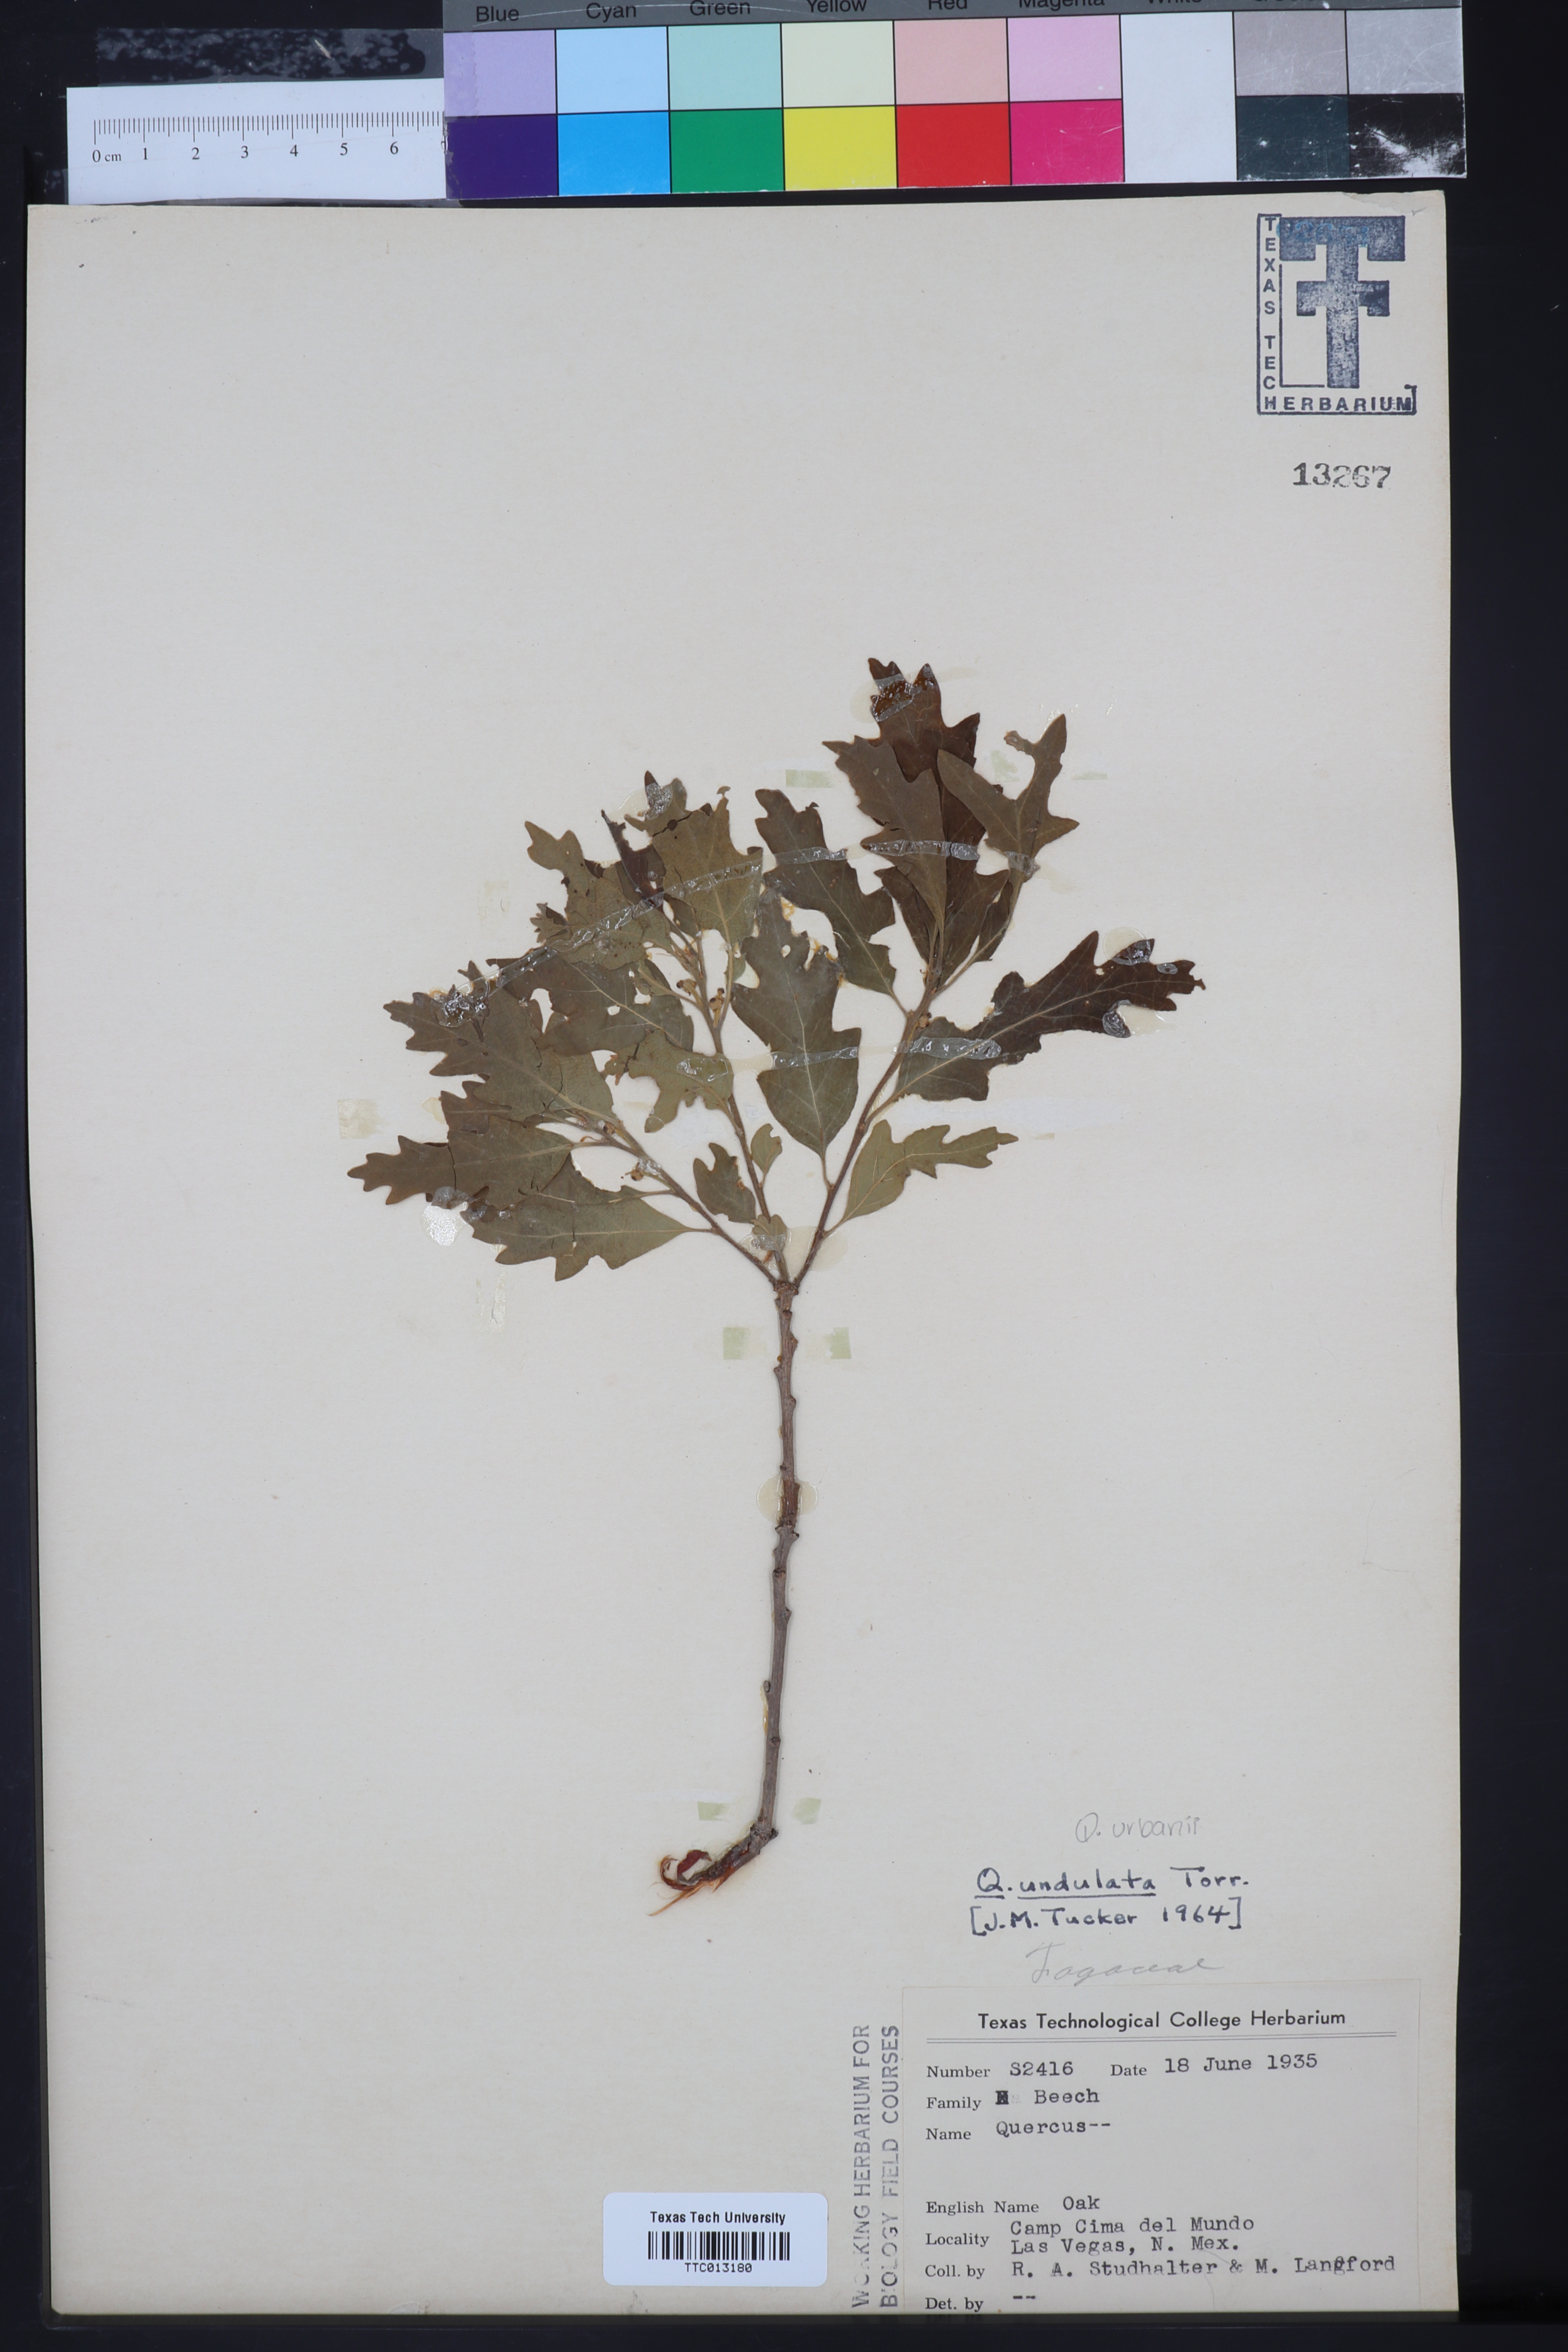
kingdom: Plantae
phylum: Tracheophyta
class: Magnoliopsida
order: Fagales
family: Fagaceae
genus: Quercus
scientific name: Quercus undulata
